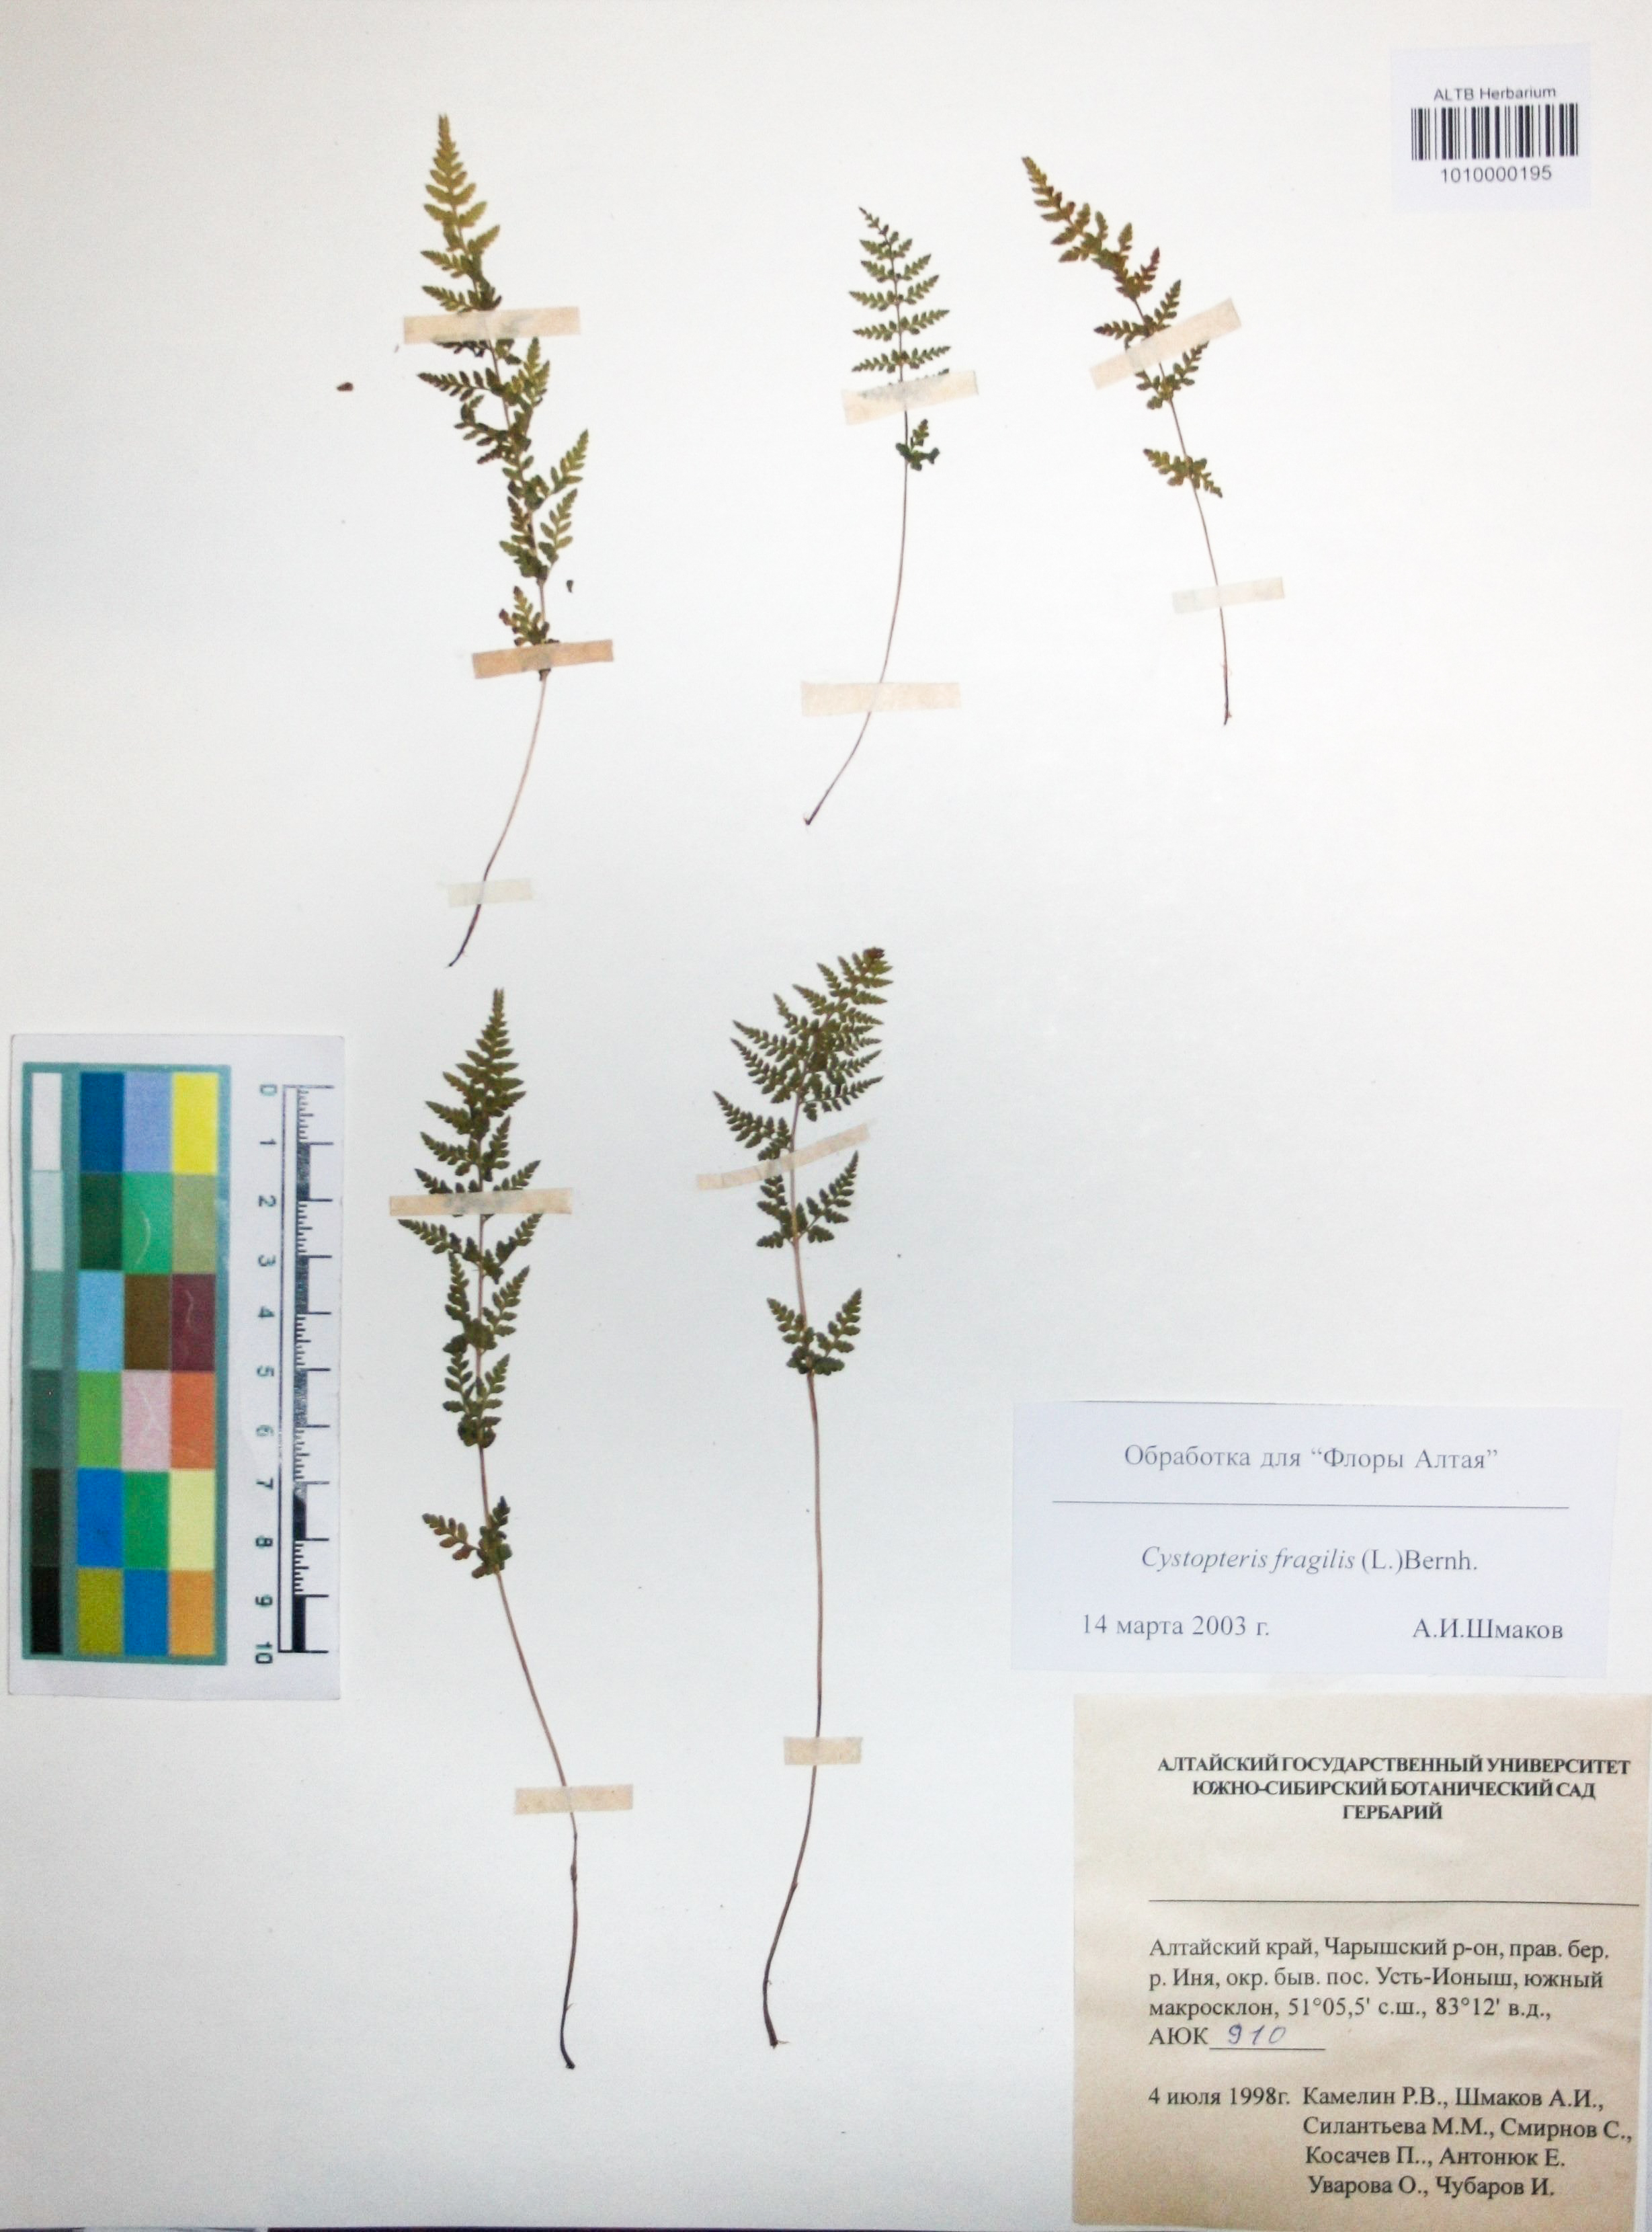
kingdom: Plantae
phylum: Tracheophyta
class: Polypodiopsida
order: Polypodiales
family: Cystopteridaceae
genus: Cystopteris
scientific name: Cystopteris fragilis
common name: Brittle bladder fern
